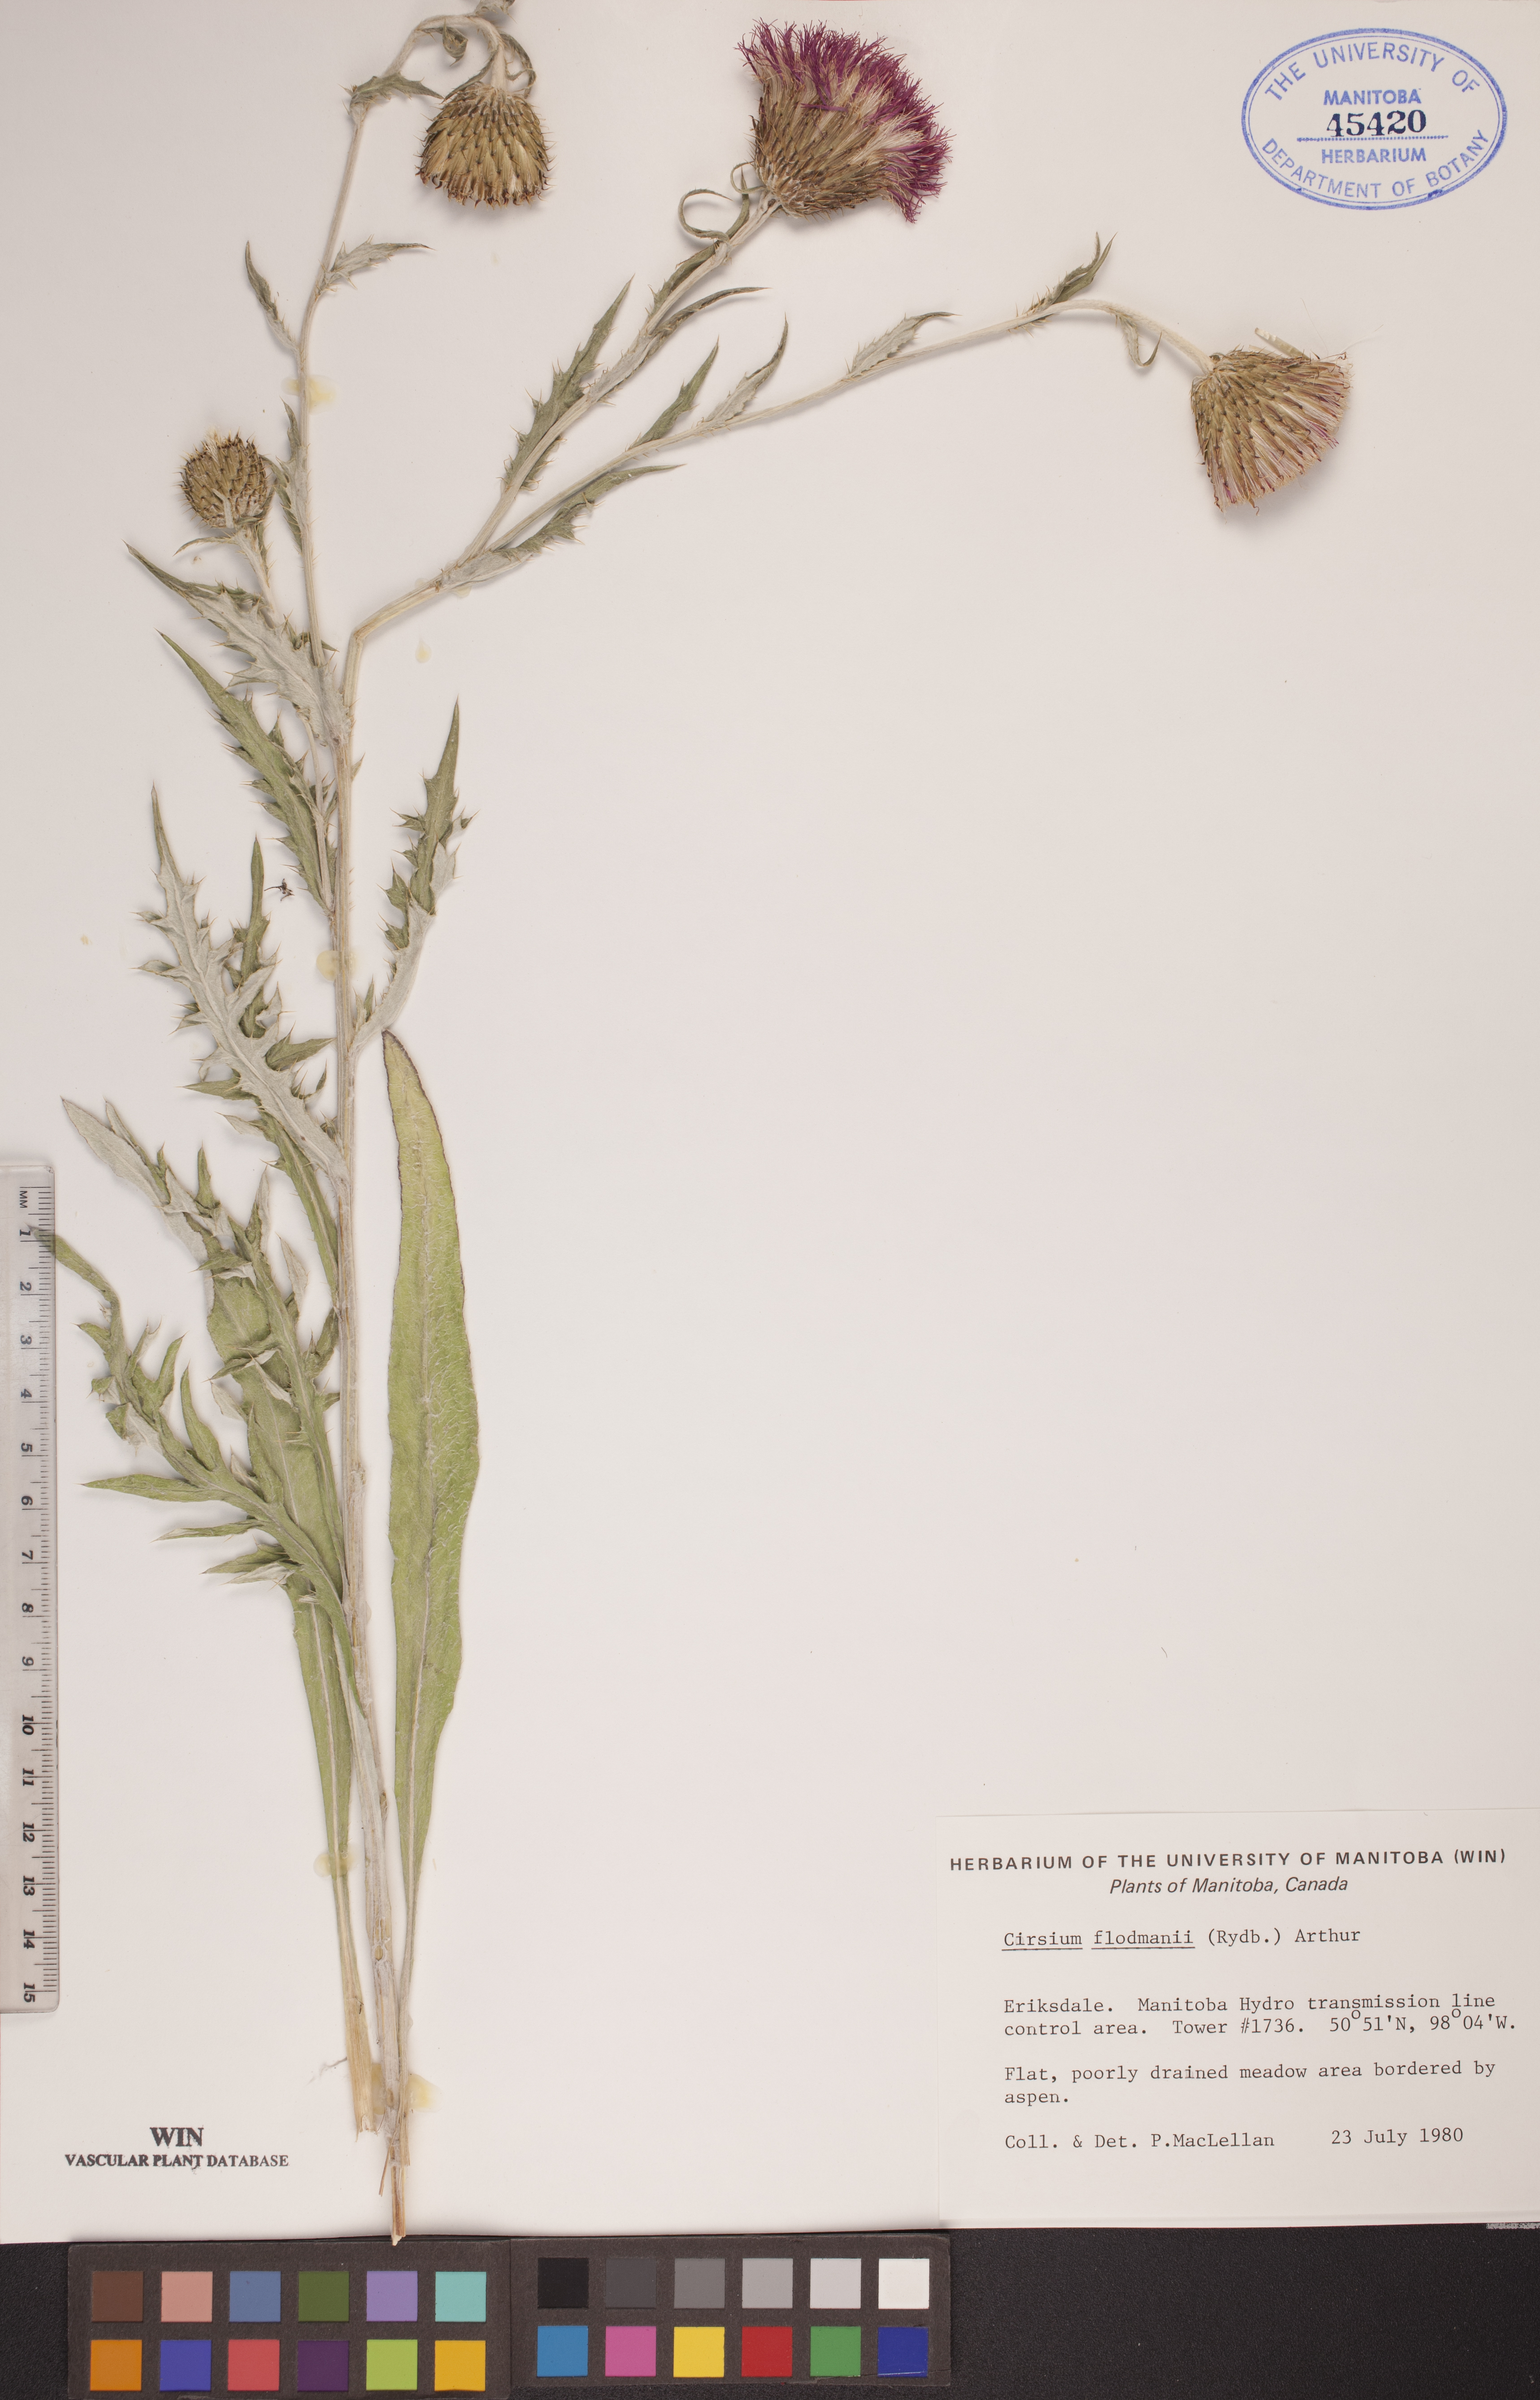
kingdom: Plantae
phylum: Tracheophyta
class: Magnoliopsida
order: Asterales
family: Asteraceae
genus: Cirsium
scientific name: Cirsium flodmanii
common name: Flodman's thistle
